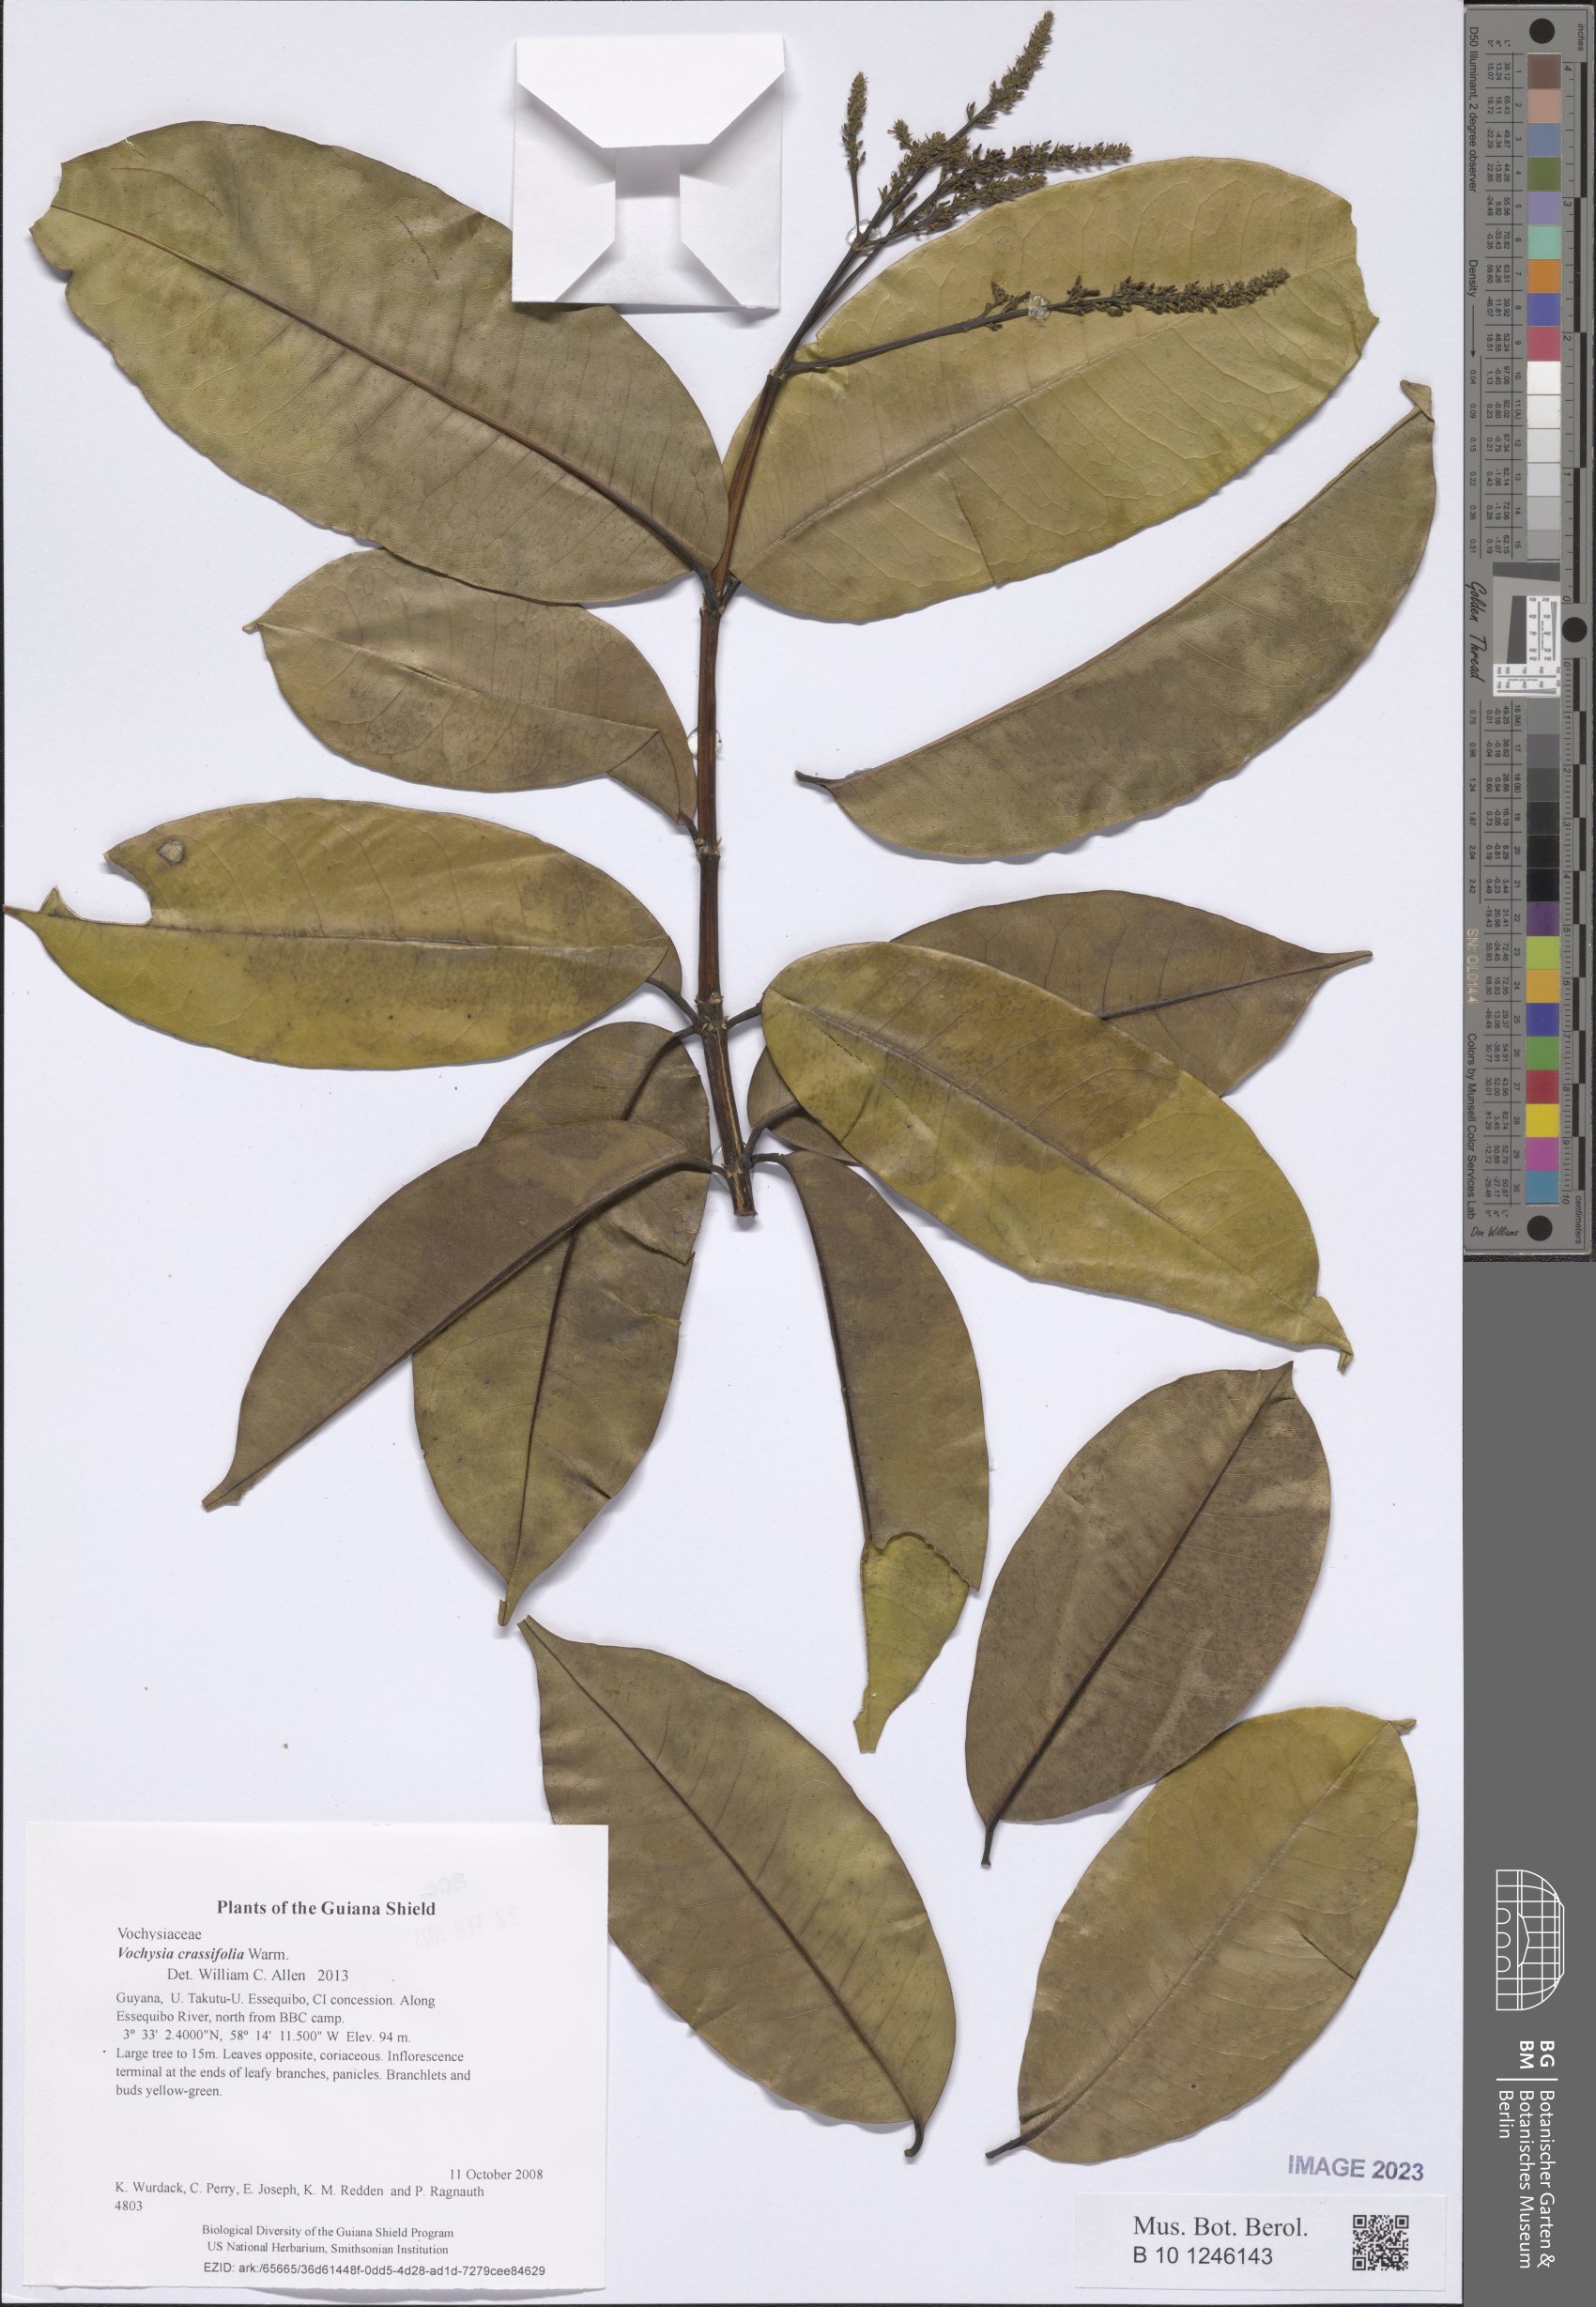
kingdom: Plantae
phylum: Tracheophyta
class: Magnoliopsida
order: Myrtales
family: Vochysiaceae
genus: Vochysia
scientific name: Vochysia crassifolia
